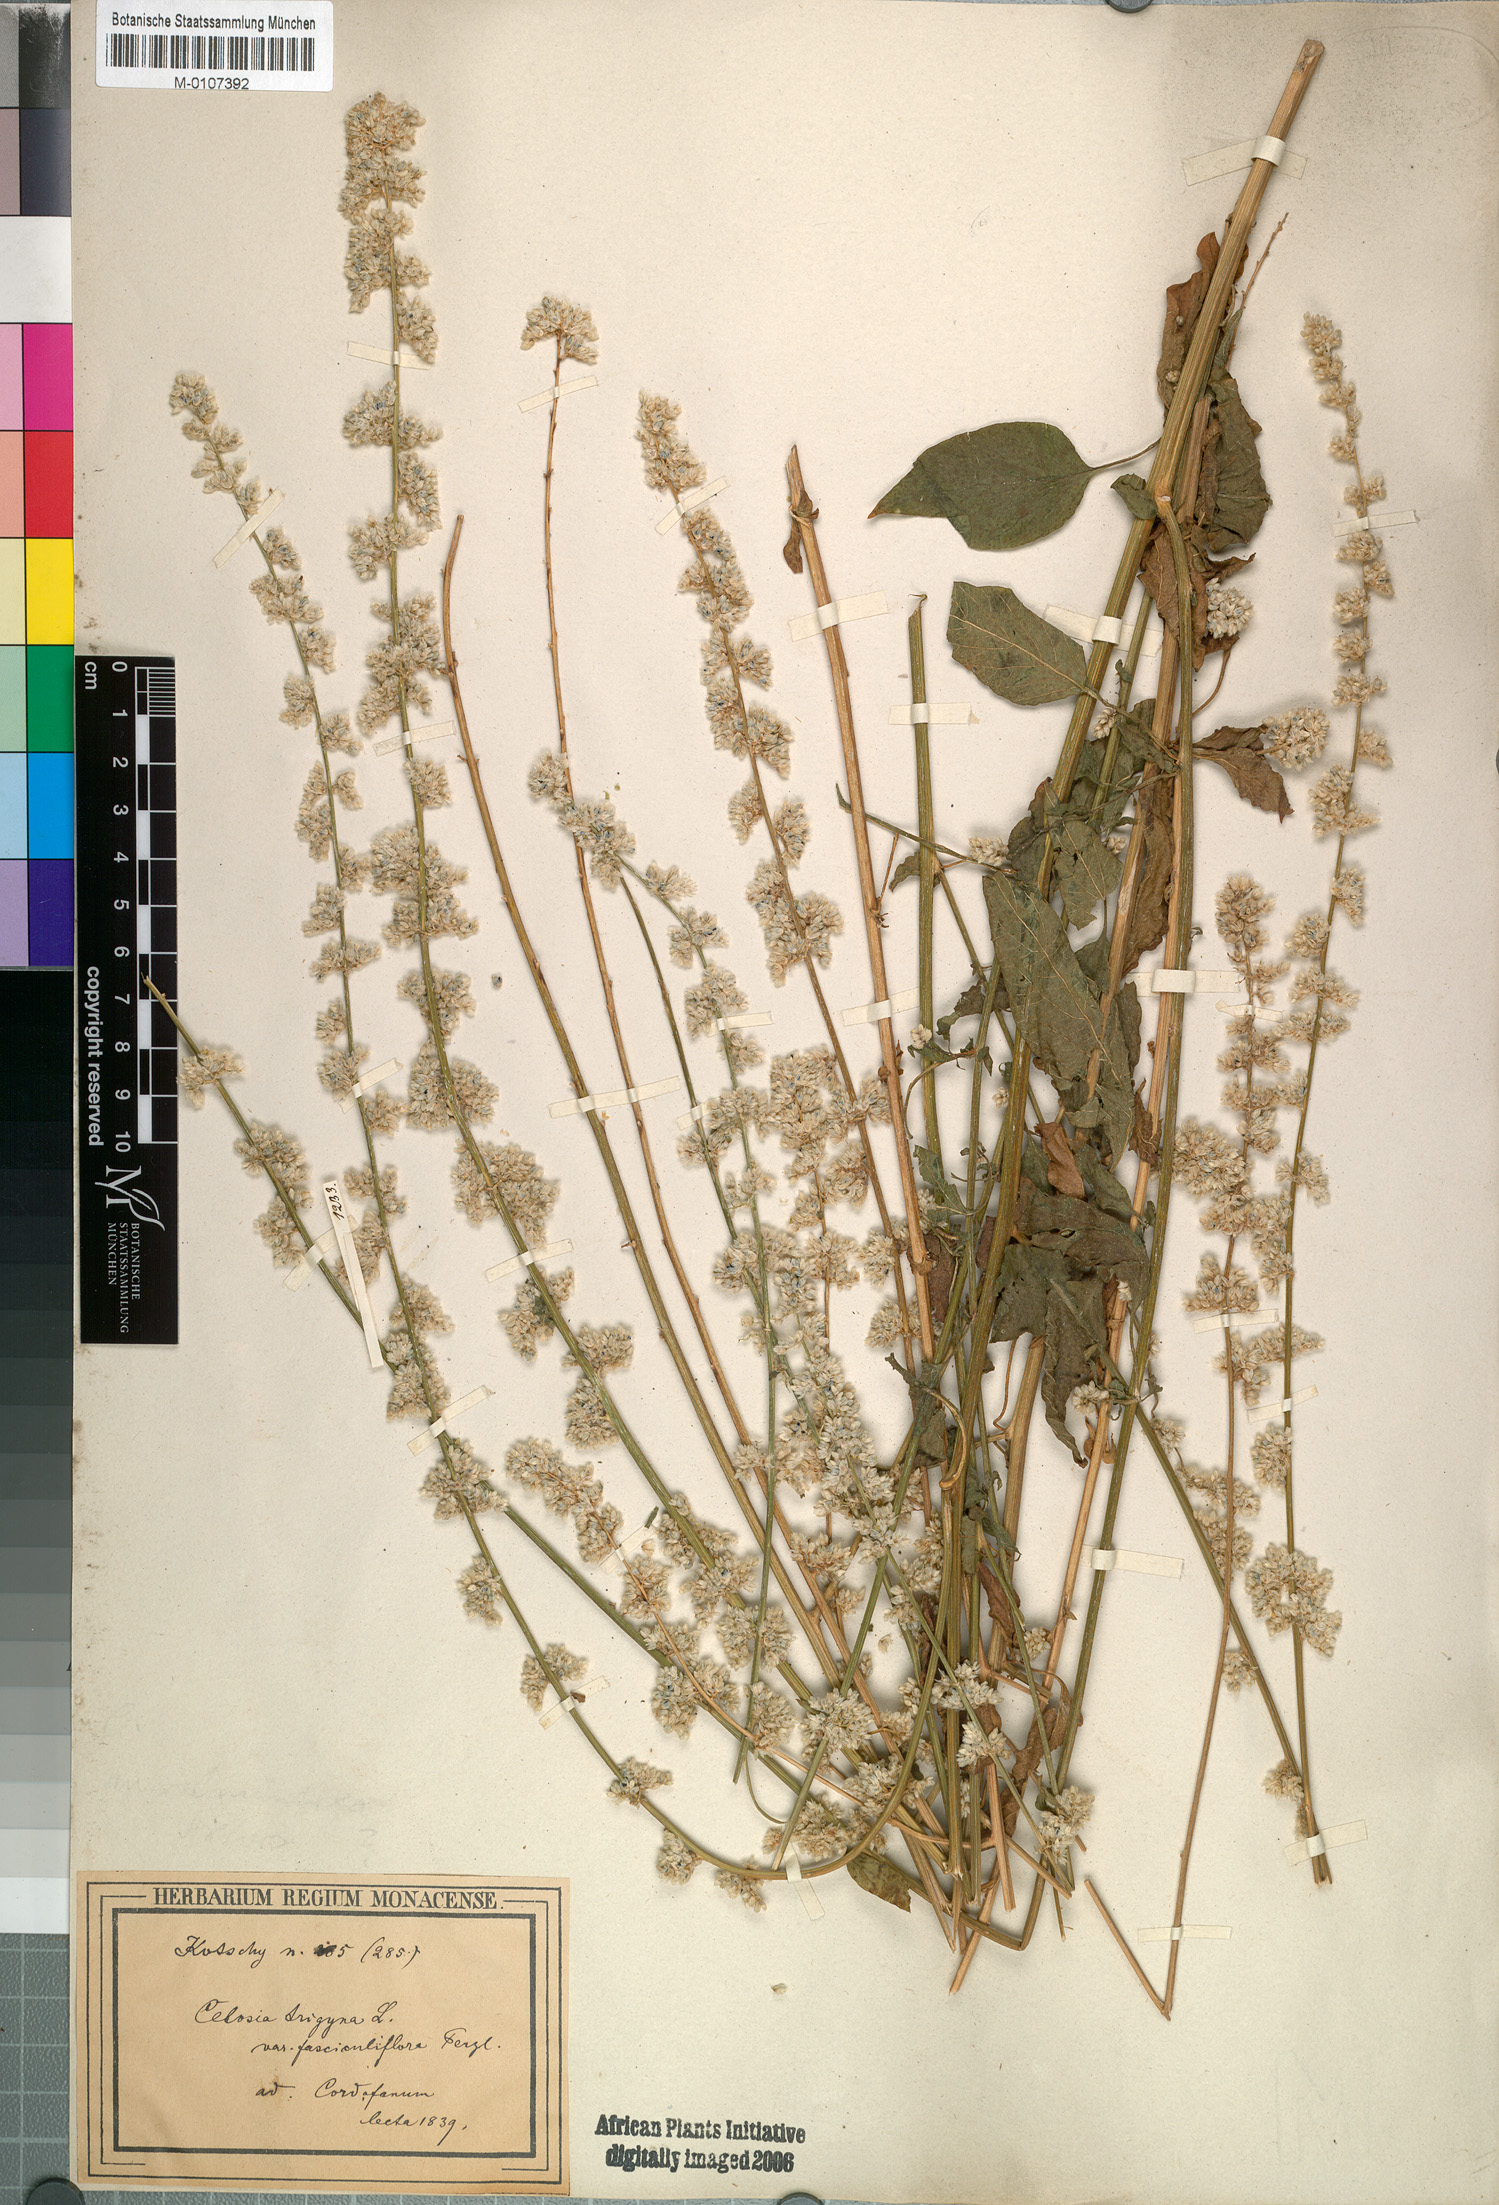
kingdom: Plantae
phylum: Tracheophyta
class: Magnoliopsida
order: Caryophyllales
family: Amaranthaceae
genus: Celosia
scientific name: Celosia trigyna
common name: Woolflower
